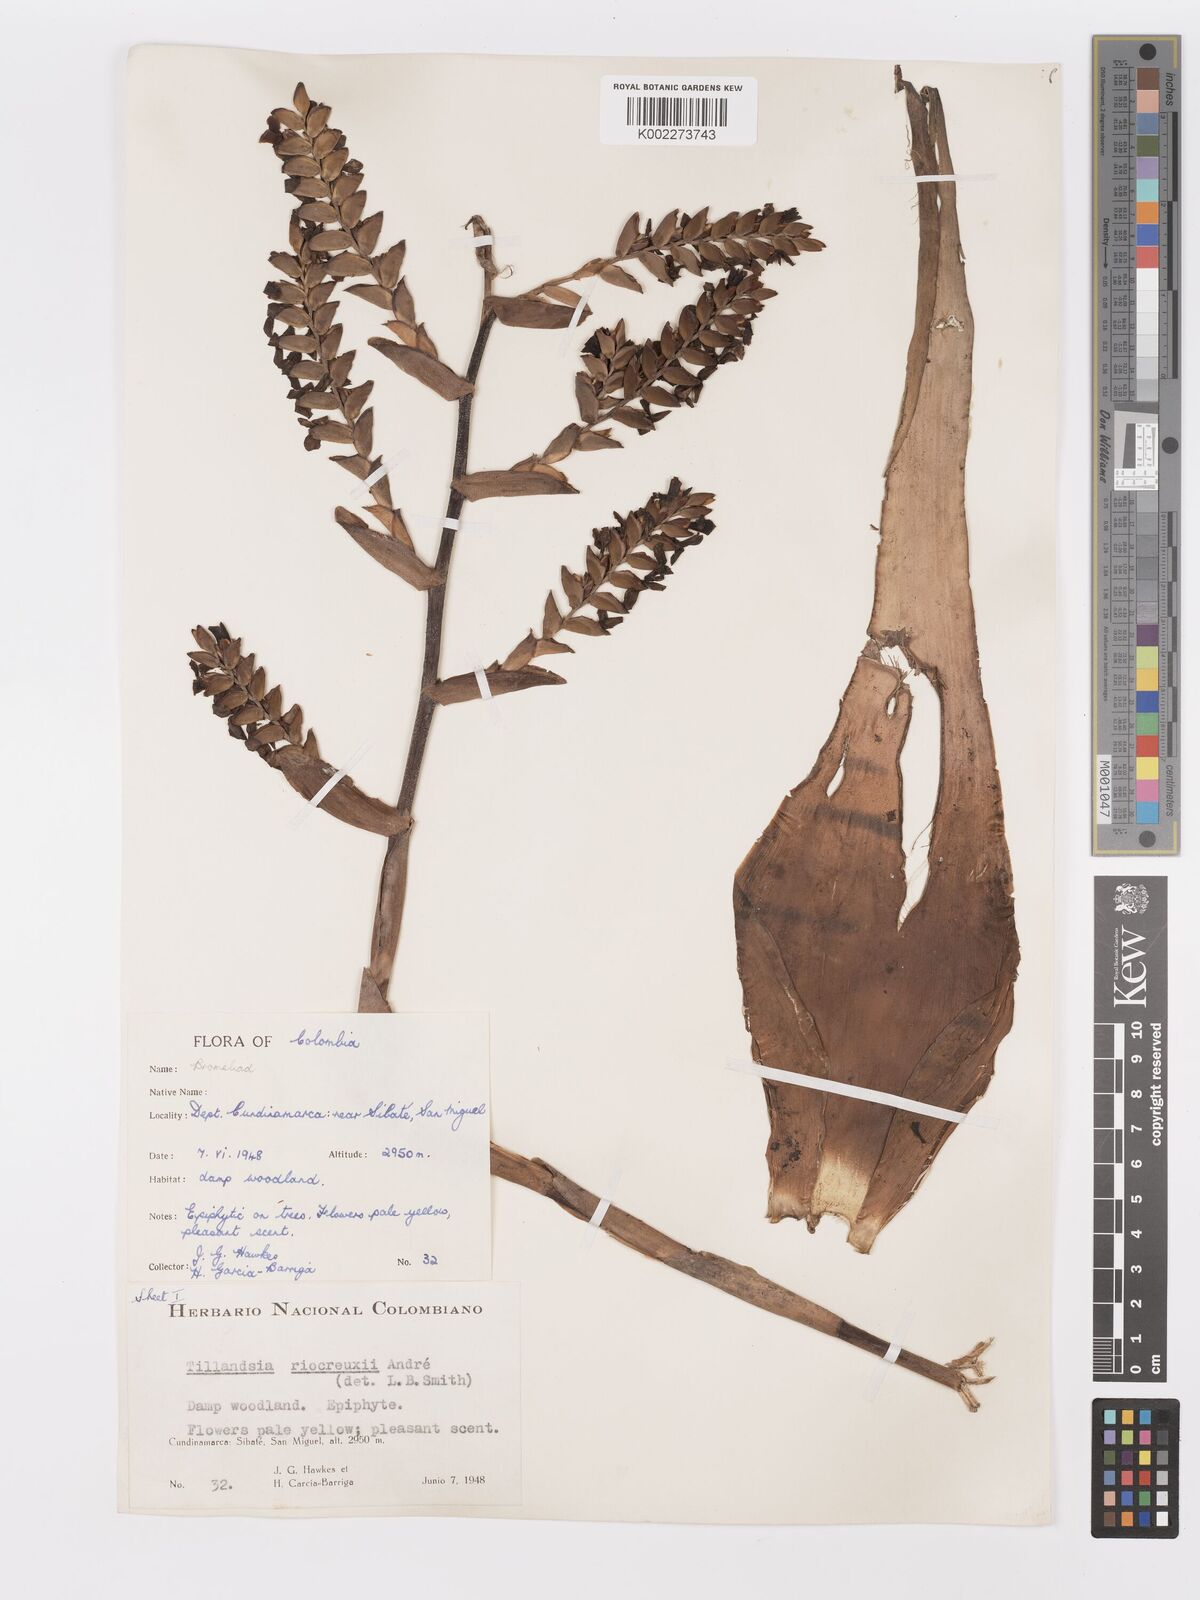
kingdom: Plantae
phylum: Tracheophyta
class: Liliopsida
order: Poales
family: Bromeliaceae
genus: Racinaea
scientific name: Racinaea riocreuxii
